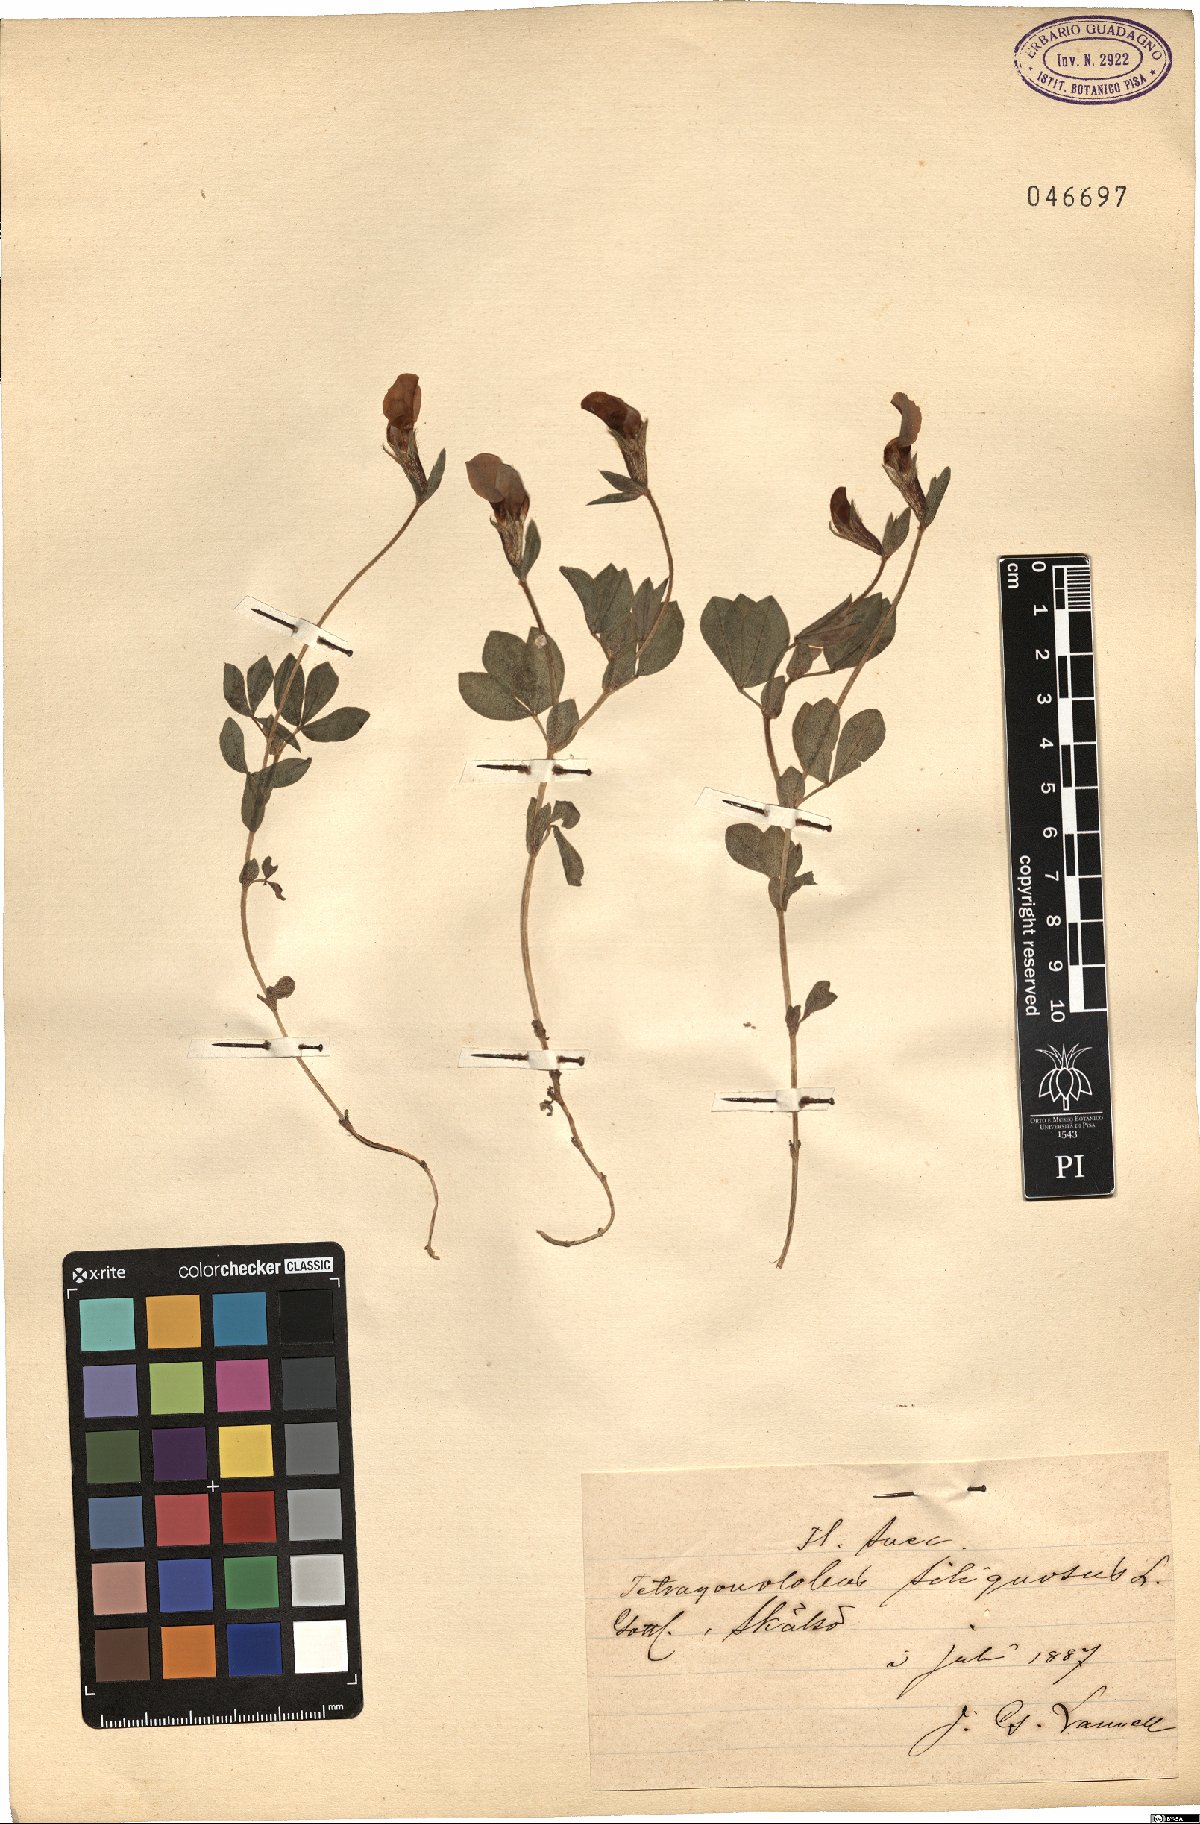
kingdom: Plantae
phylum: Tracheophyta
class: Magnoliopsida
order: Fabales
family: Fabaceae
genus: Lathyrus
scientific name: Lathyrus inconspicuus
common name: Inconspicuous pea
